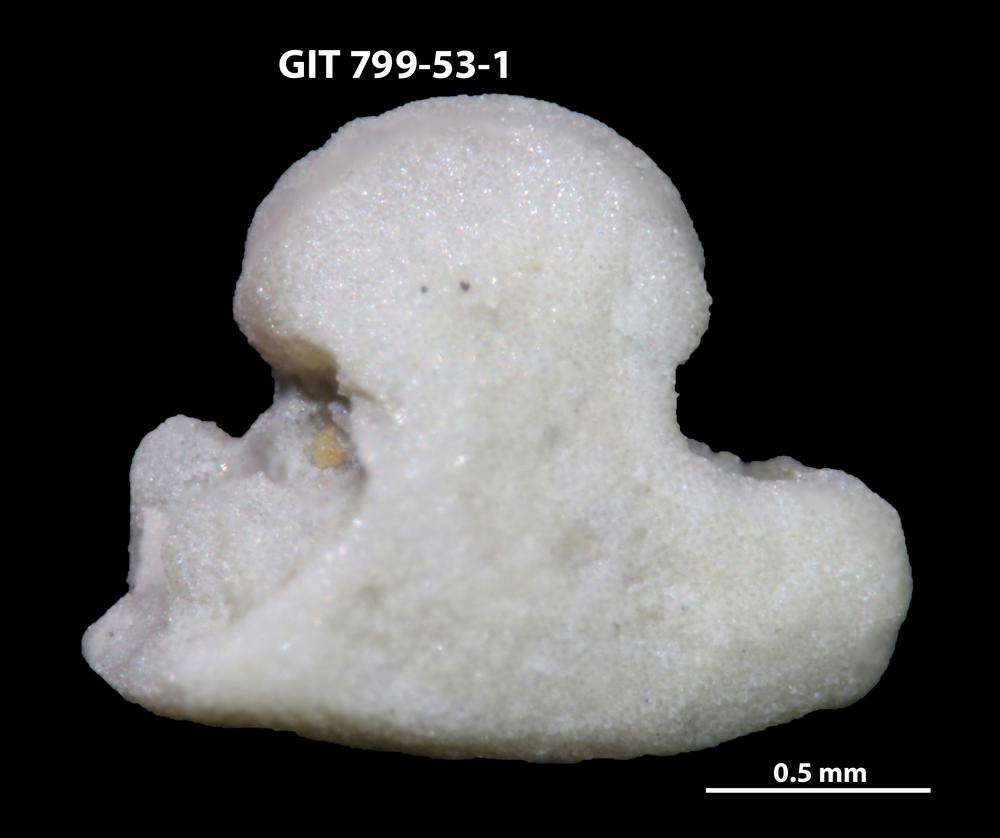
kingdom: Animalia
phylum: Echinodermata
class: Crinoidea
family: Cyclocystoididae
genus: Polytryphocycloides
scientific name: Polytryphocycloides
